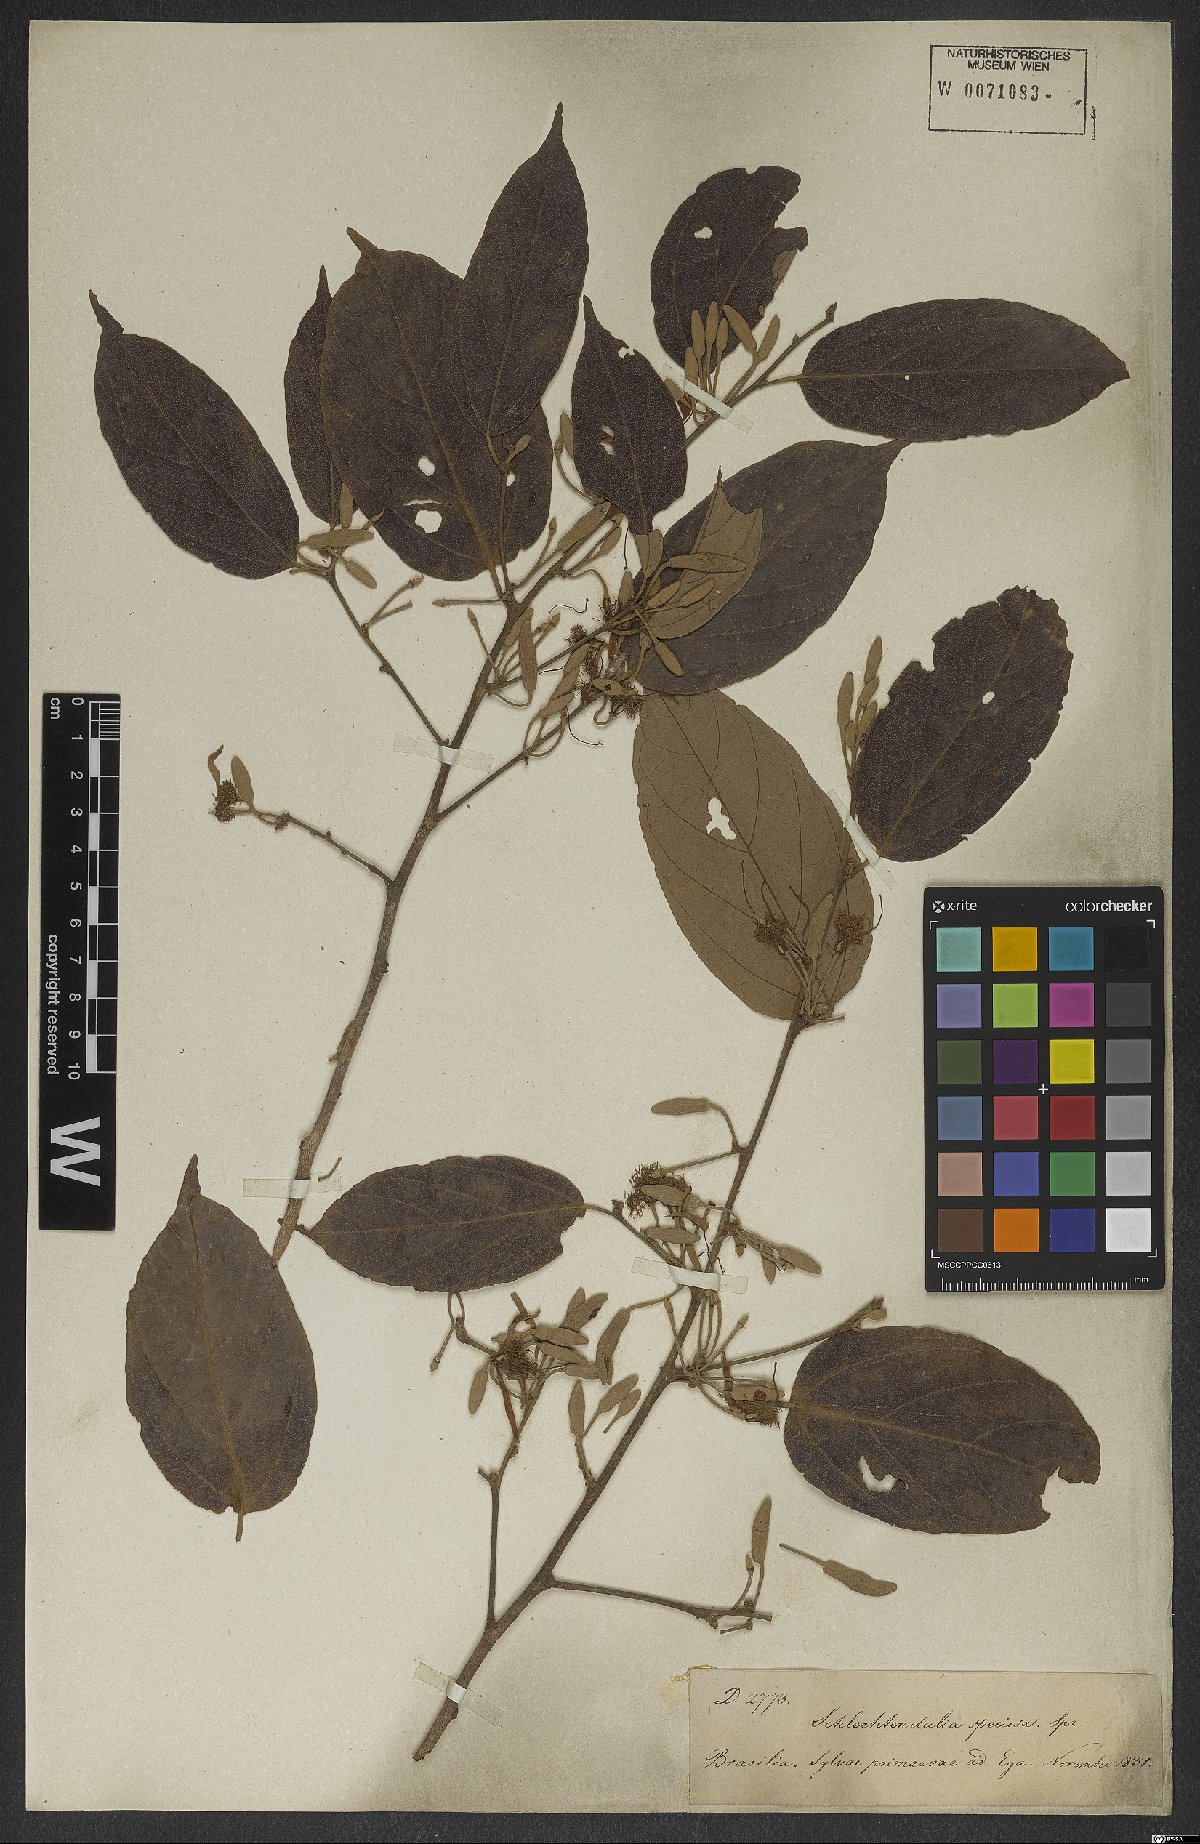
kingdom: Plantae
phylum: Tracheophyta
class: Magnoliopsida
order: Malvales
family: Malvaceae
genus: Mollia
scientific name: Mollia speciosa
